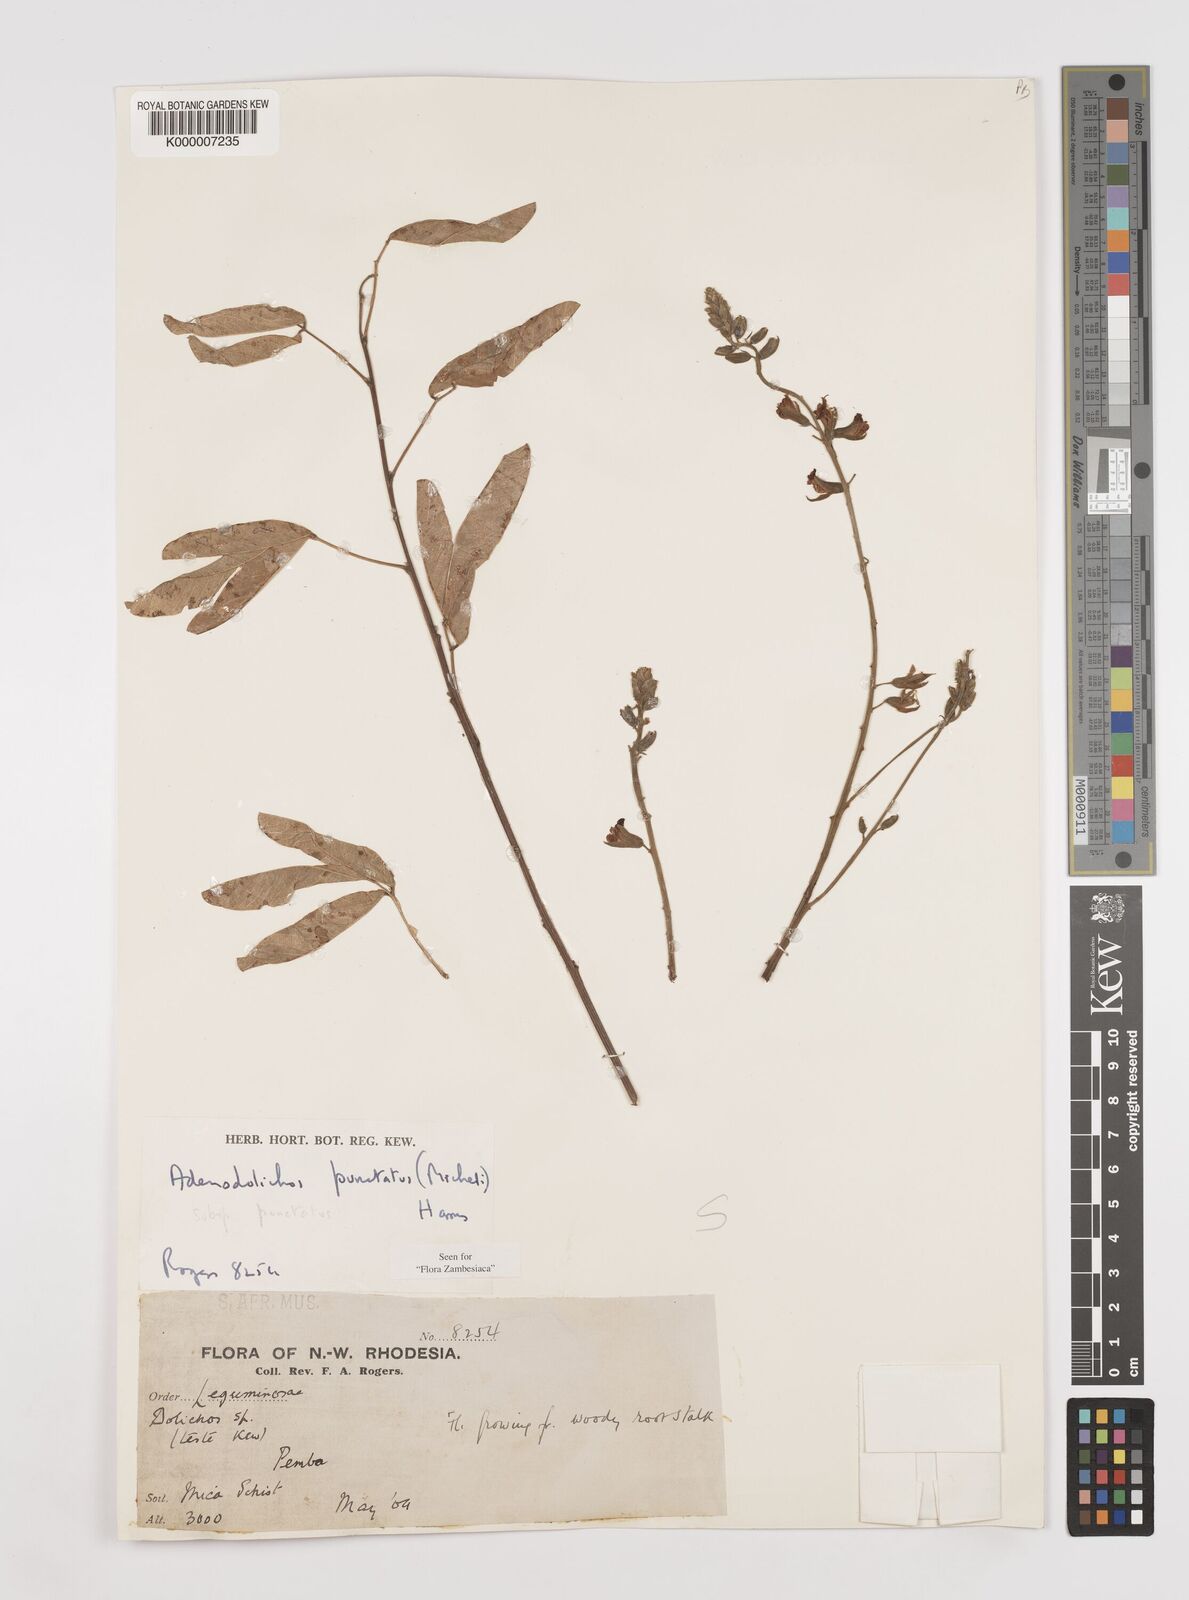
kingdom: Plantae
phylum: Tracheophyta
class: Magnoliopsida
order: Fabales
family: Fabaceae
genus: Adenodolichos
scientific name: Adenodolichos punctatus
